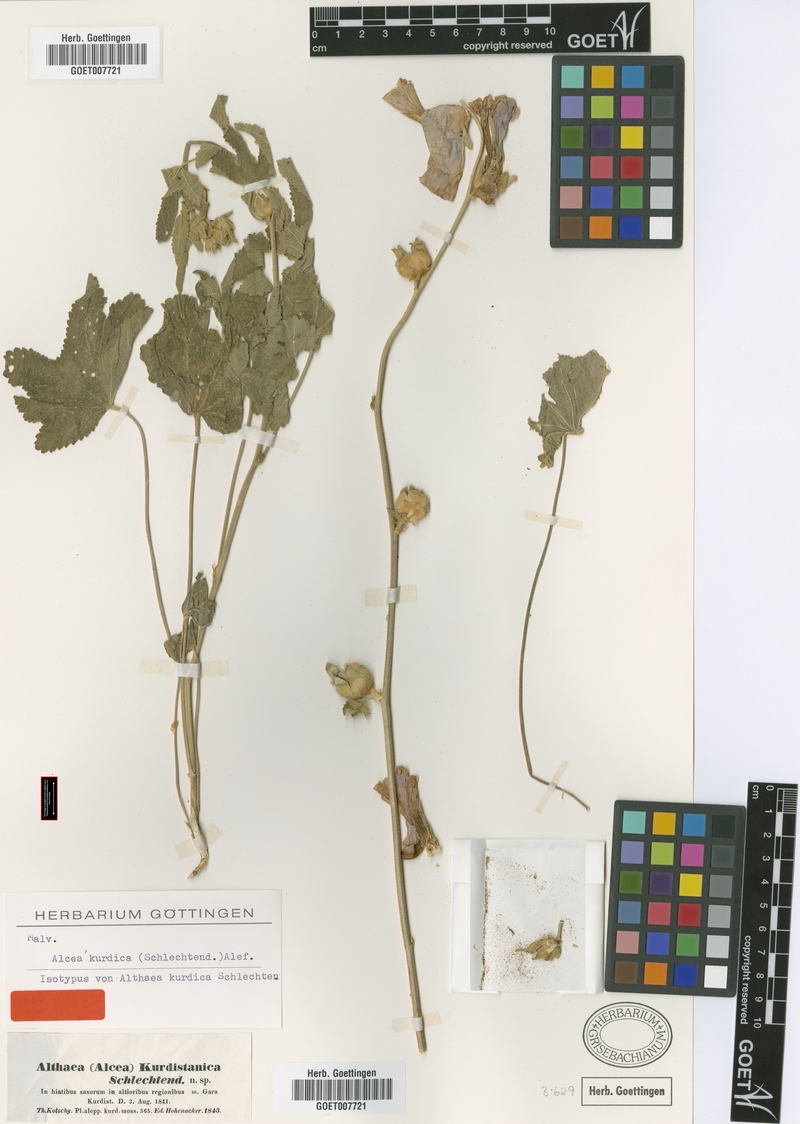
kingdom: Plantae
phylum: Tracheophyta
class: Magnoliopsida
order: Malvales
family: Malvaceae
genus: Alcea
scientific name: Alcea kurdica
